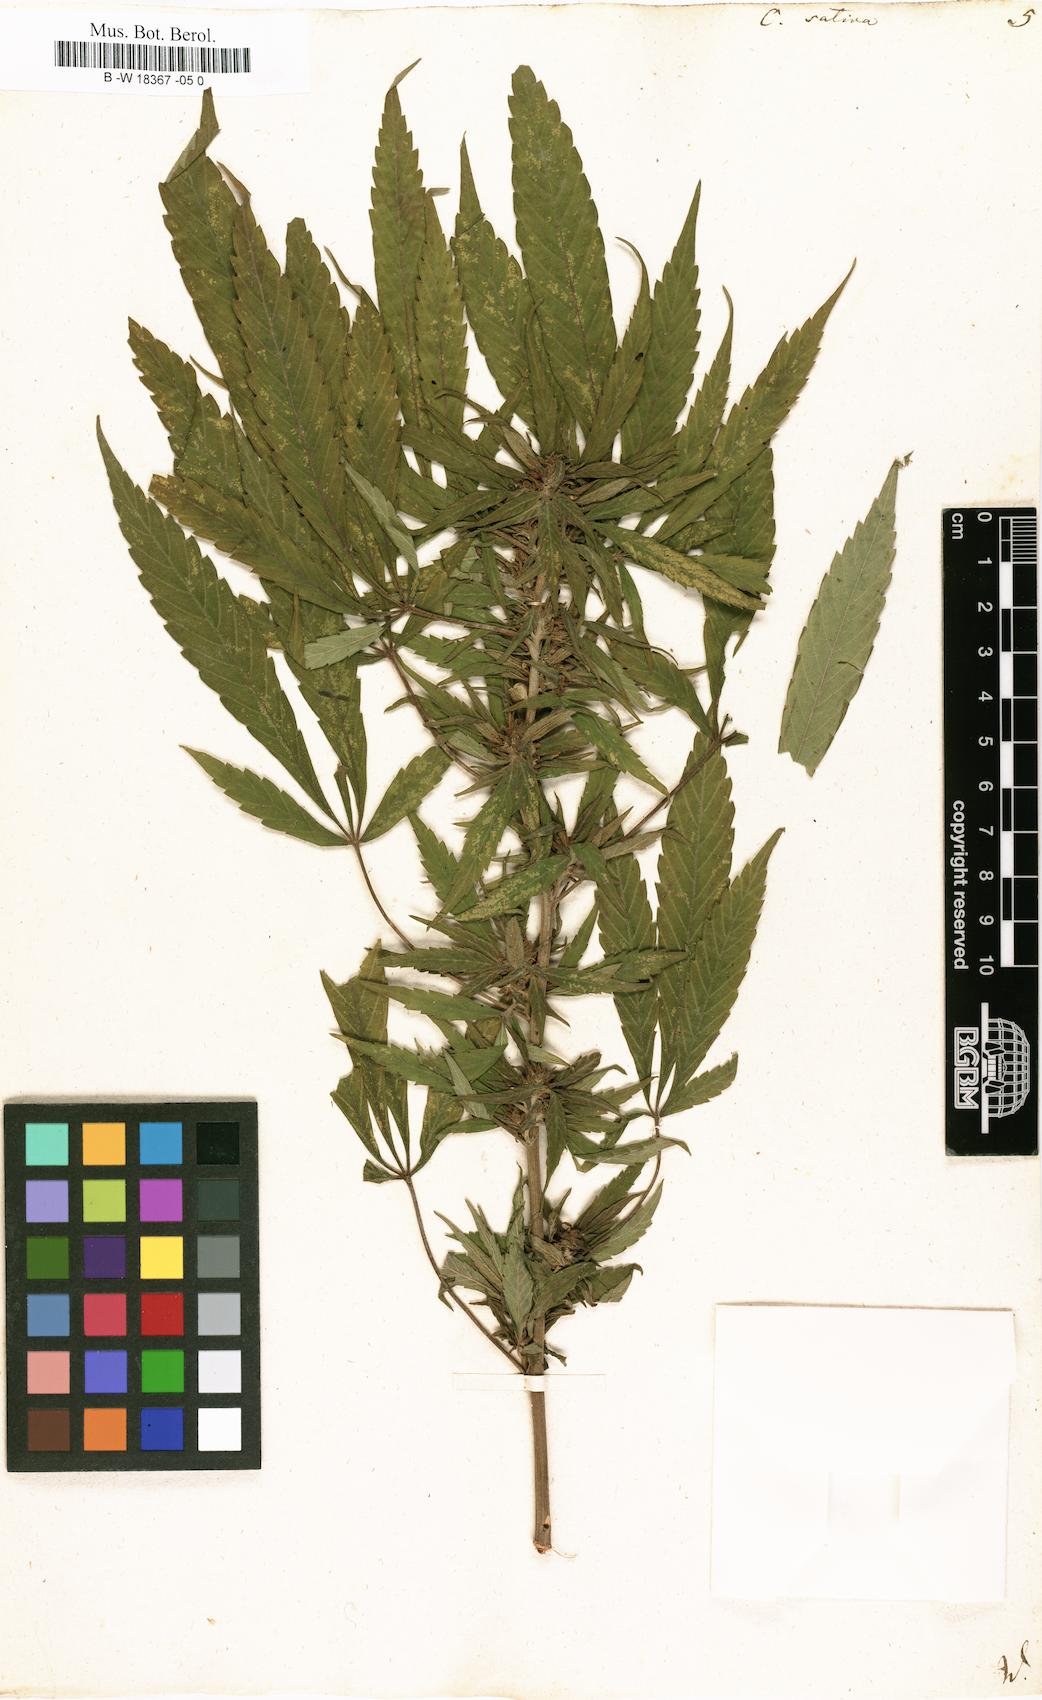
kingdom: Plantae
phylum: Tracheophyta
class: Magnoliopsida
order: Rosales
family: Cannabaceae
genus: Cannabis
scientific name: Cannabis sativa
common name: Hemp
